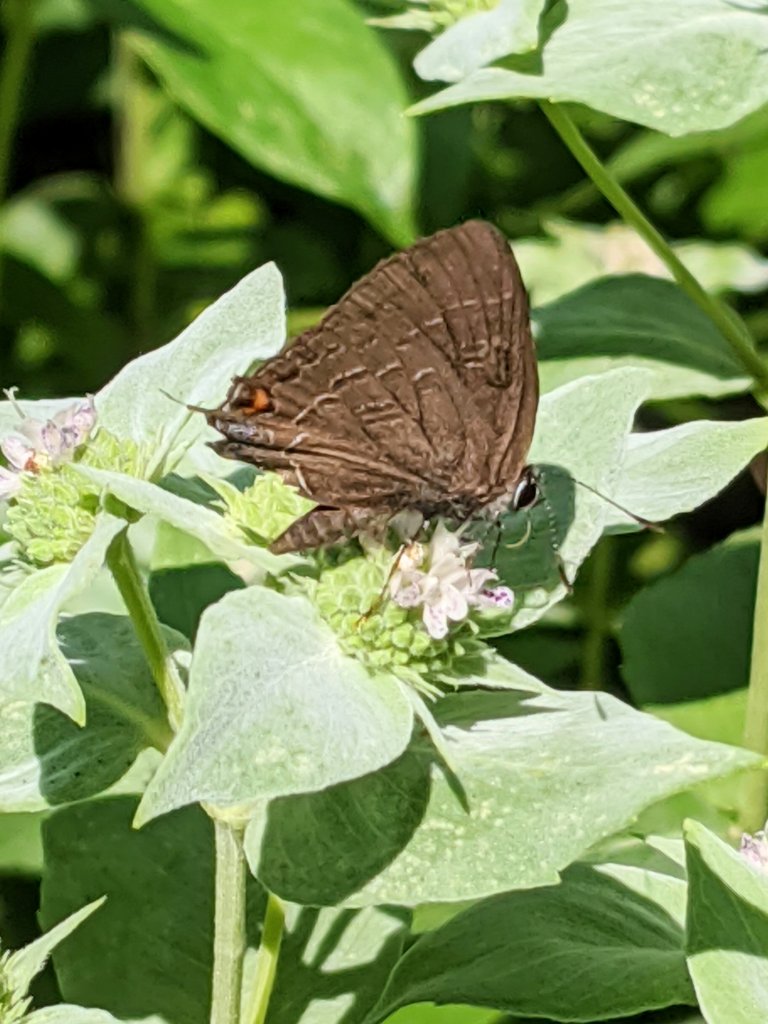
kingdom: Animalia
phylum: Arthropoda
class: Insecta
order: Lepidoptera
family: Lycaenidae
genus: Satyrium
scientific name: Satyrium calanus
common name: Banded Hairstreak
